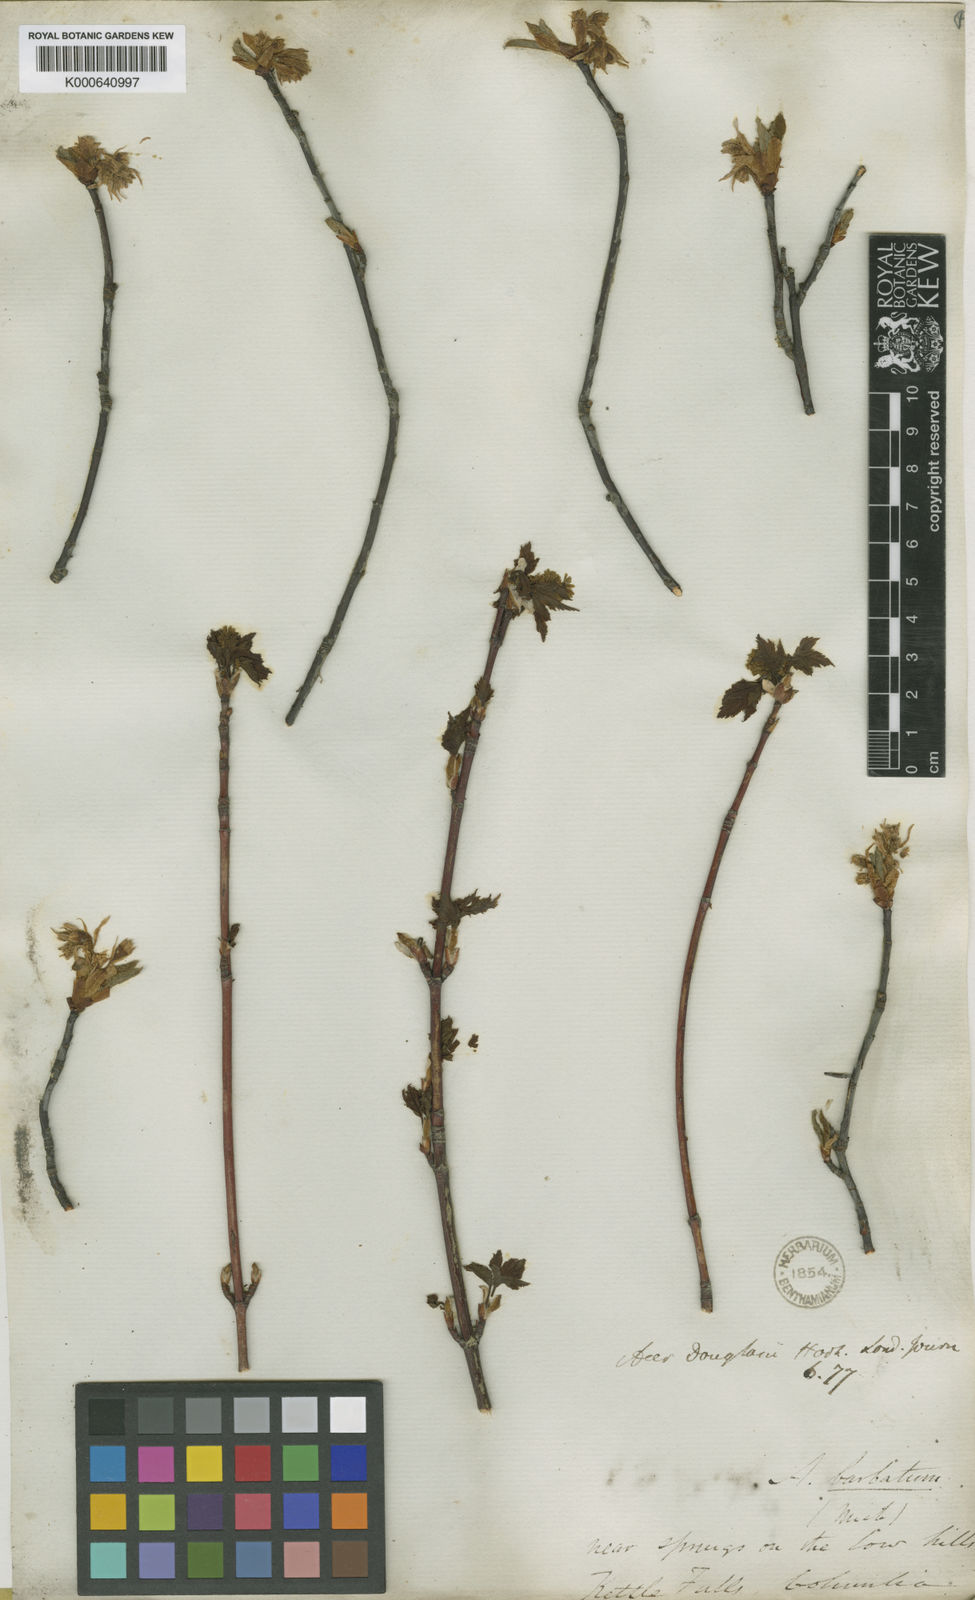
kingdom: Plantae
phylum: Tracheophyta
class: Magnoliopsida
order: Sapindales
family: Sapindaceae
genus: Acer
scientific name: Acer glabrum
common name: Rocky mountain maple
